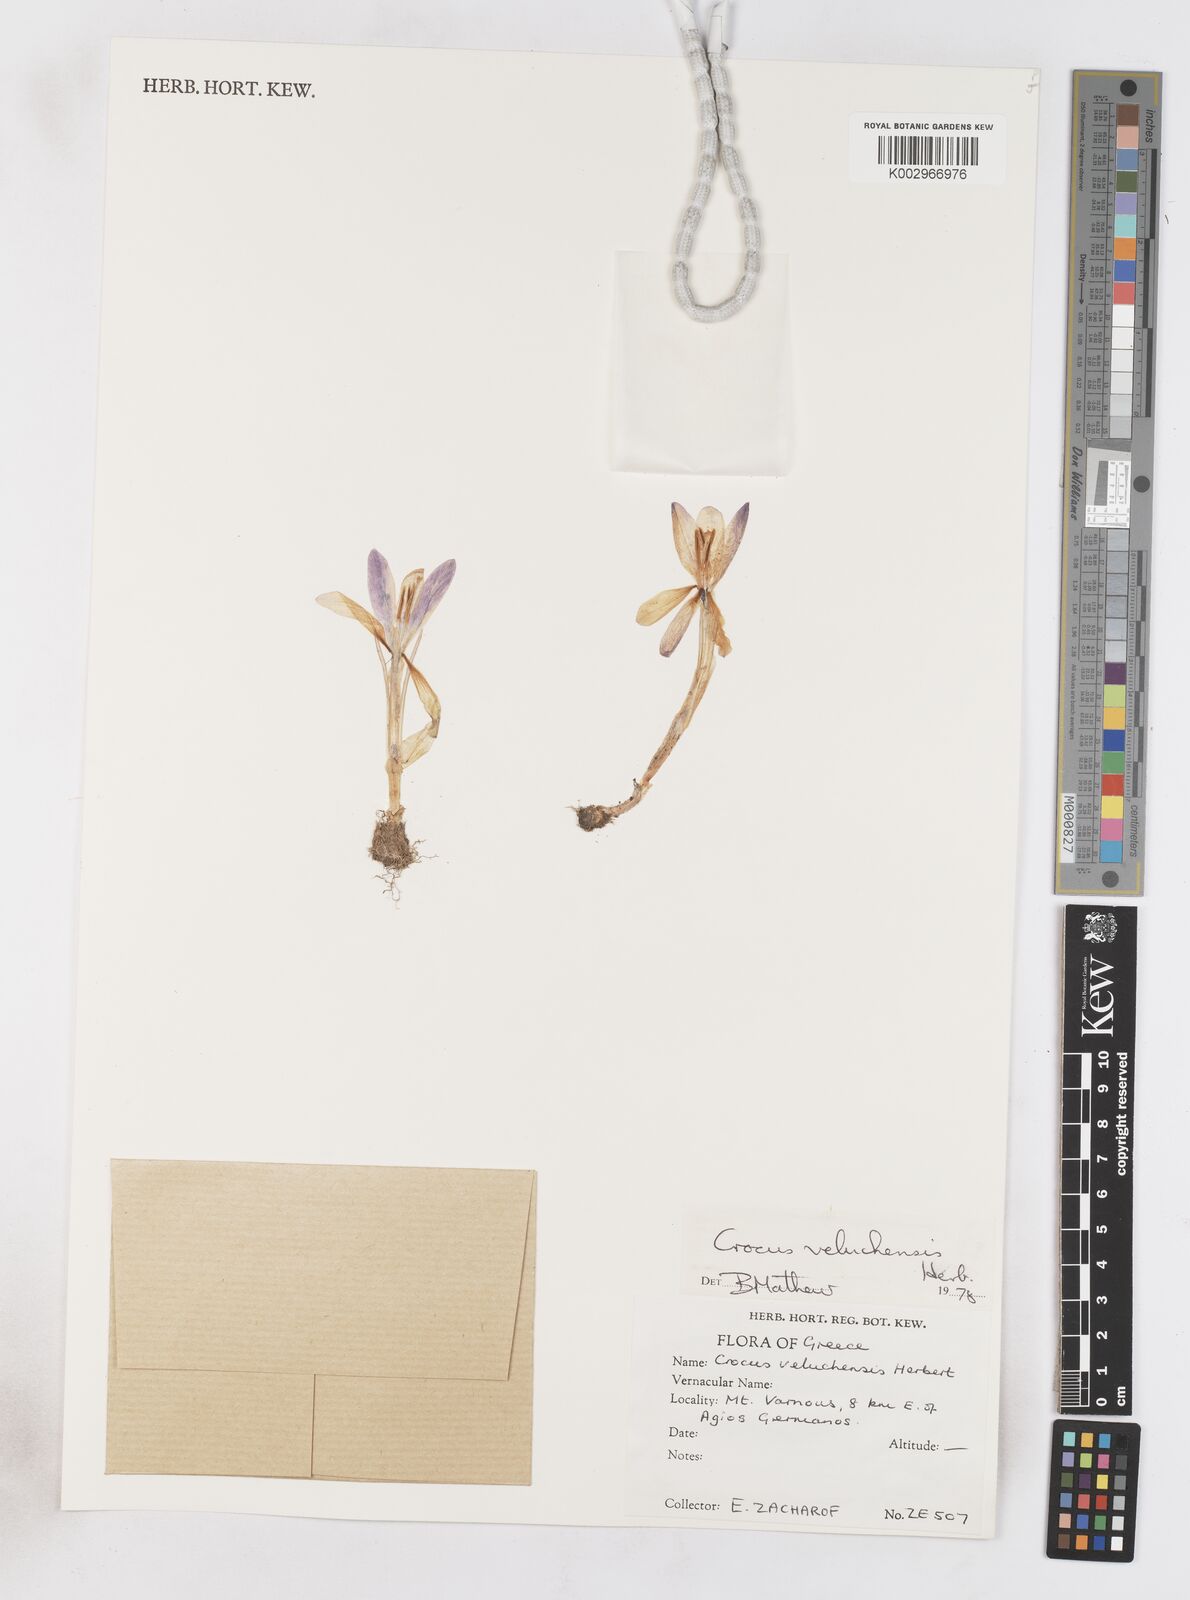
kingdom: Plantae
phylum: Tracheophyta
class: Liliopsida
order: Asparagales
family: Iridaceae
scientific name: Iridaceae
